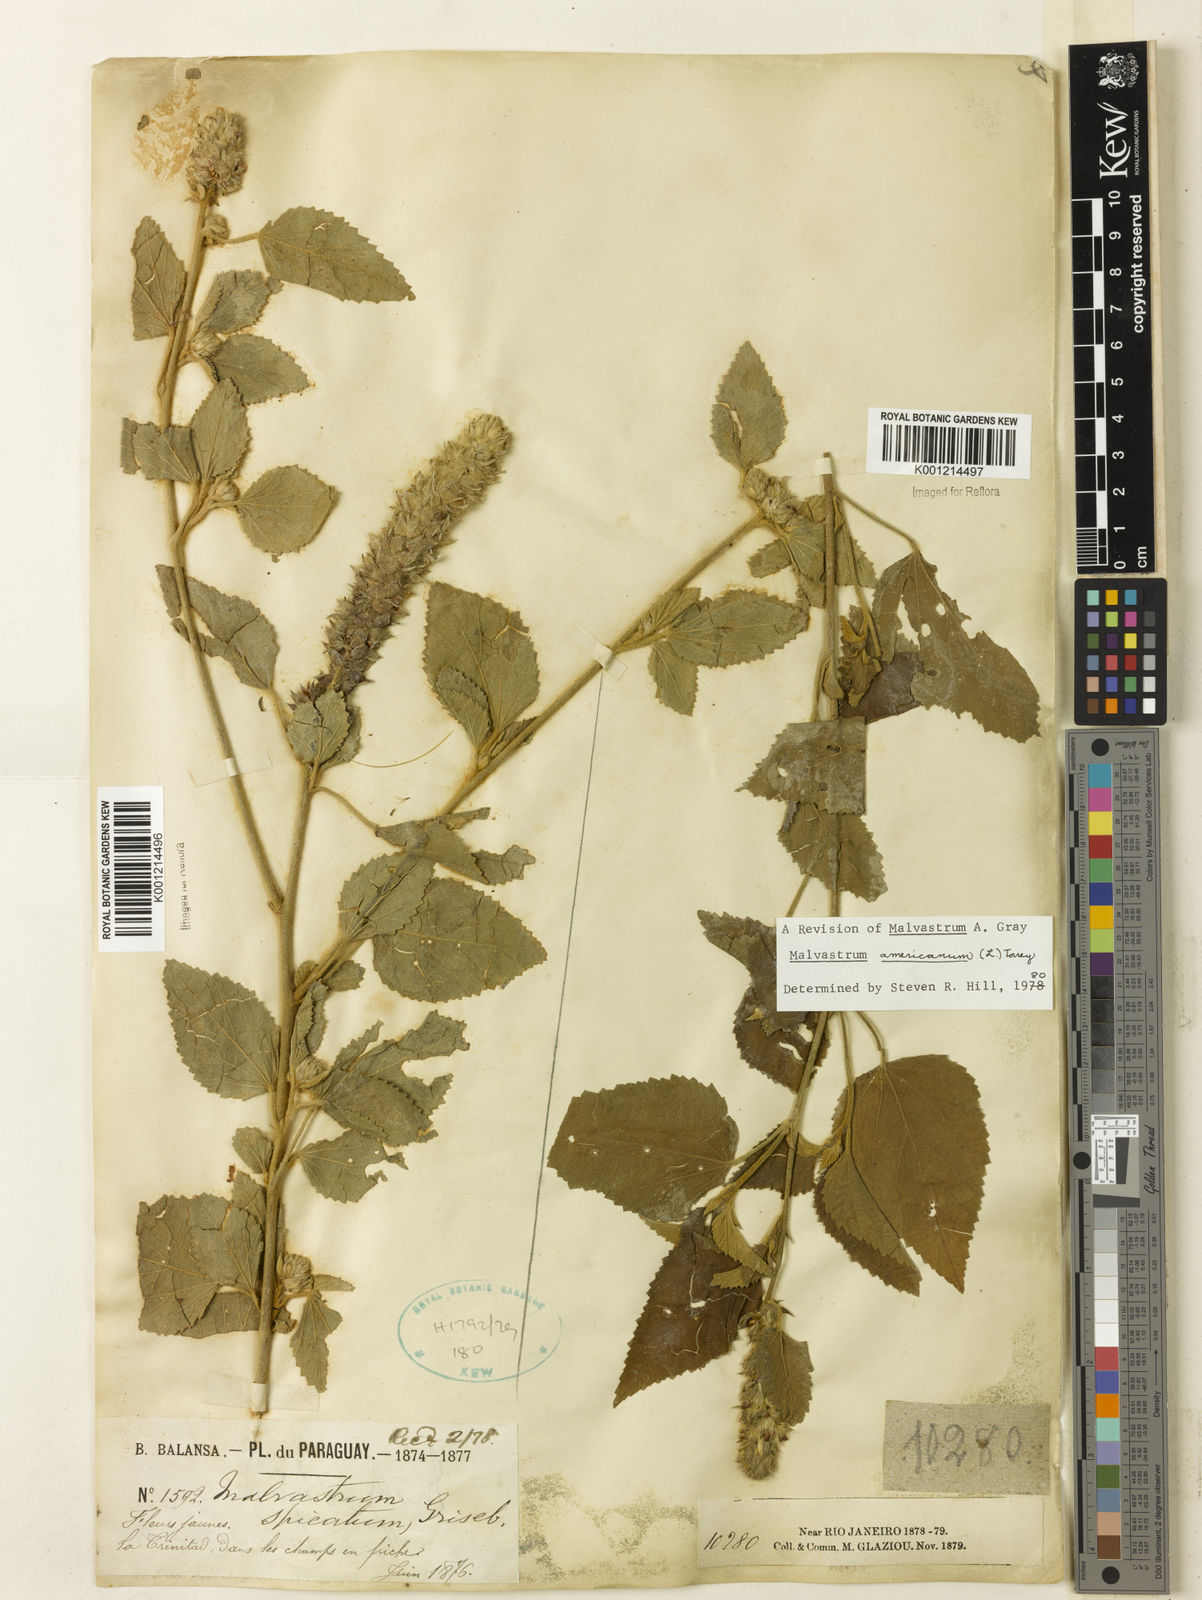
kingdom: Plantae
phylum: Tracheophyta
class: Magnoliopsida
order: Malvales
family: Malvaceae
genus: Malvastrum
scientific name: Malvastrum americanum
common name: Spiked malvastrum
